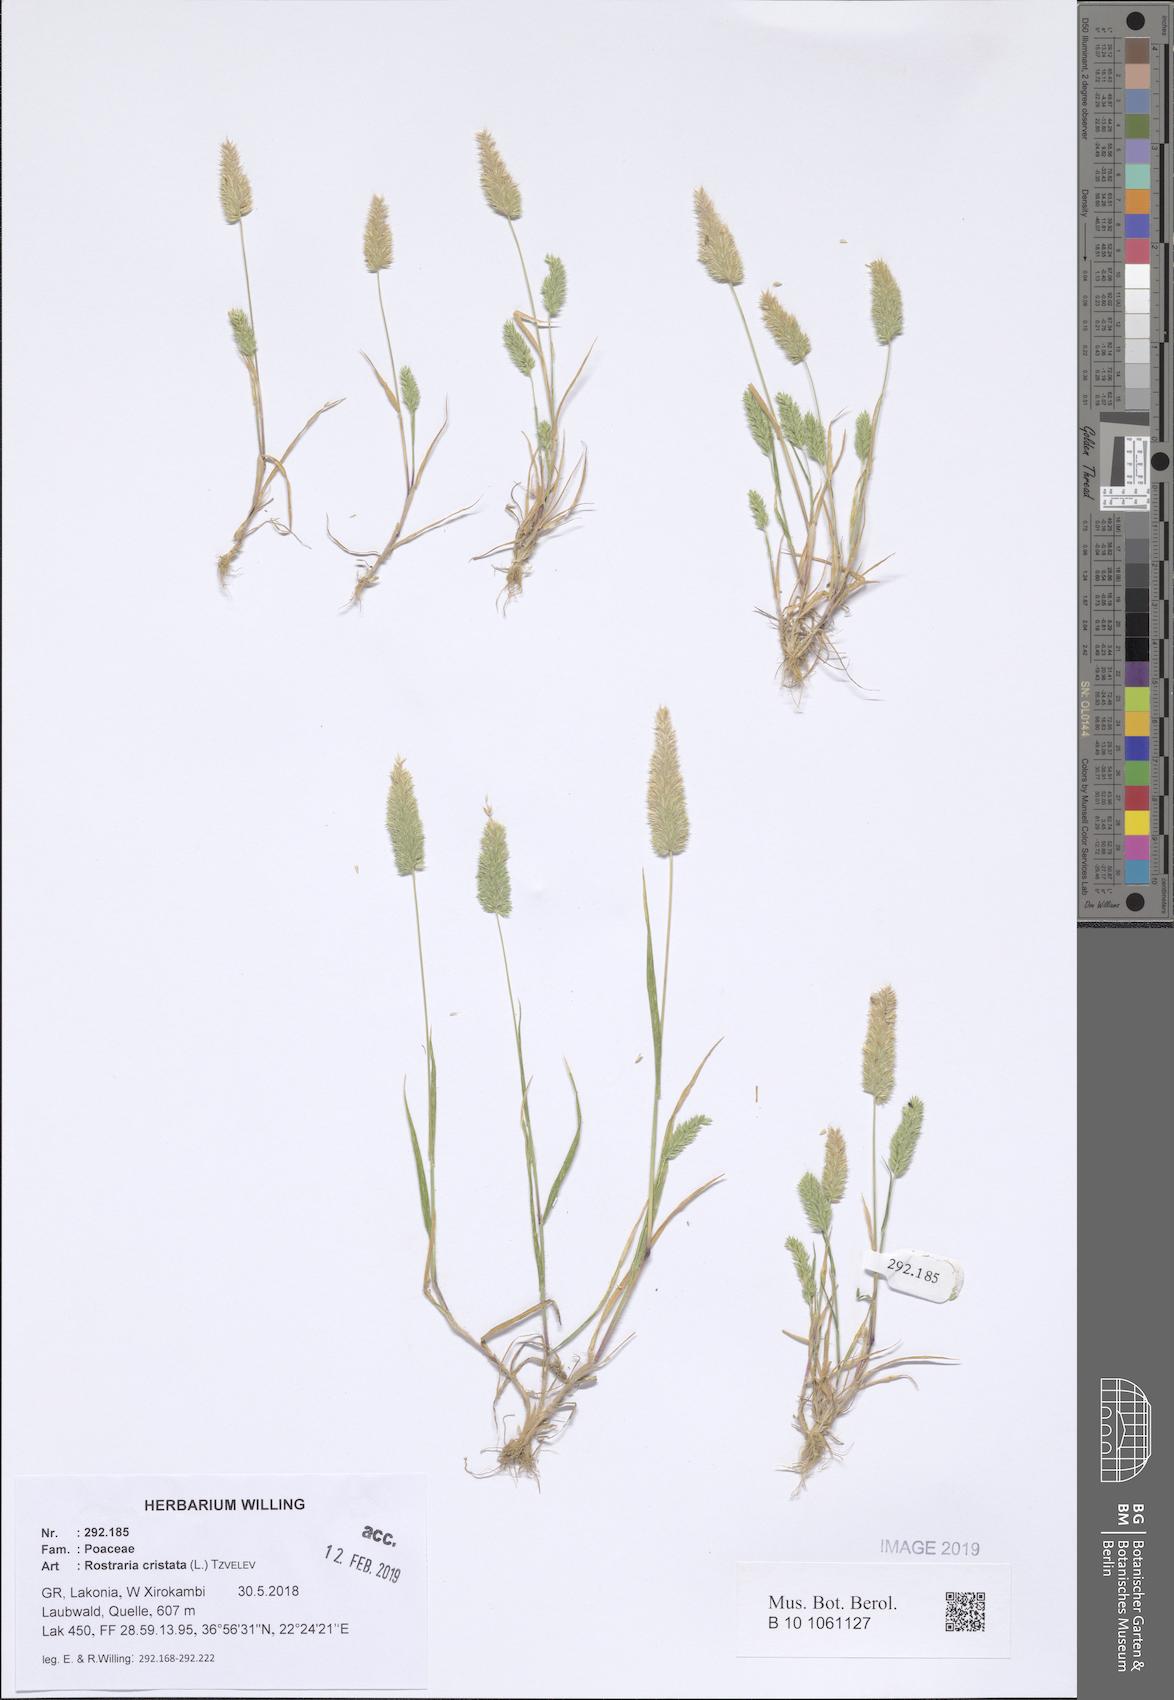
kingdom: Plantae
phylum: Tracheophyta
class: Liliopsida
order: Poales
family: Poaceae
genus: Rostraria
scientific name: Rostraria cristata
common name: Mediterranean hair-grass
